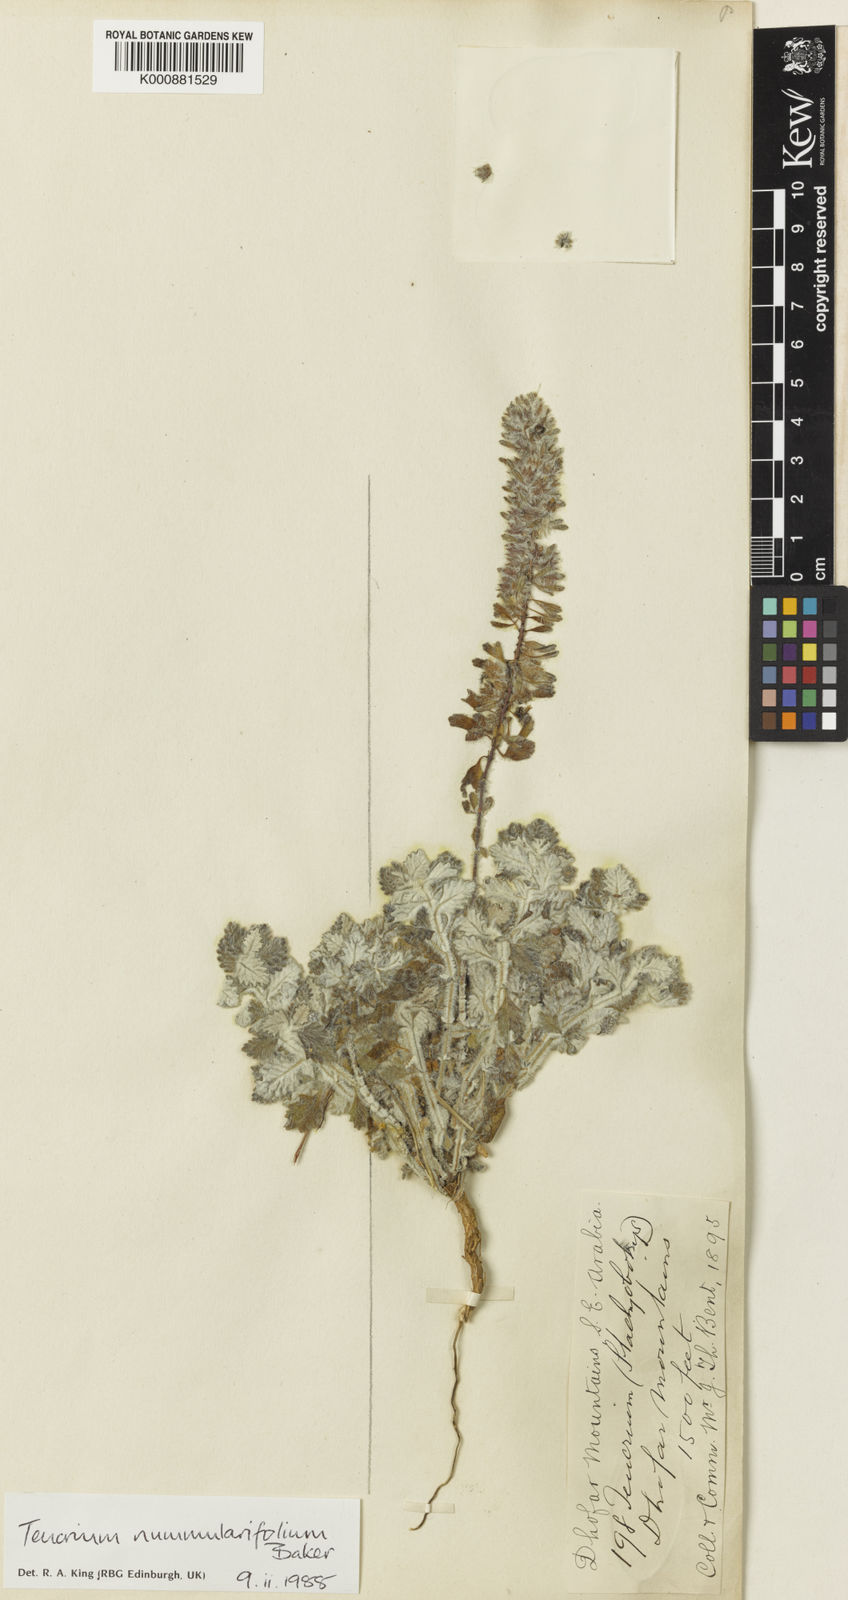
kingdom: Plantae
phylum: Tracheophyta
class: Magnoliopsida
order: Lamiales
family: Lamiaceae
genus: Teucrium
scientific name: Teucrium nummulariifolium
